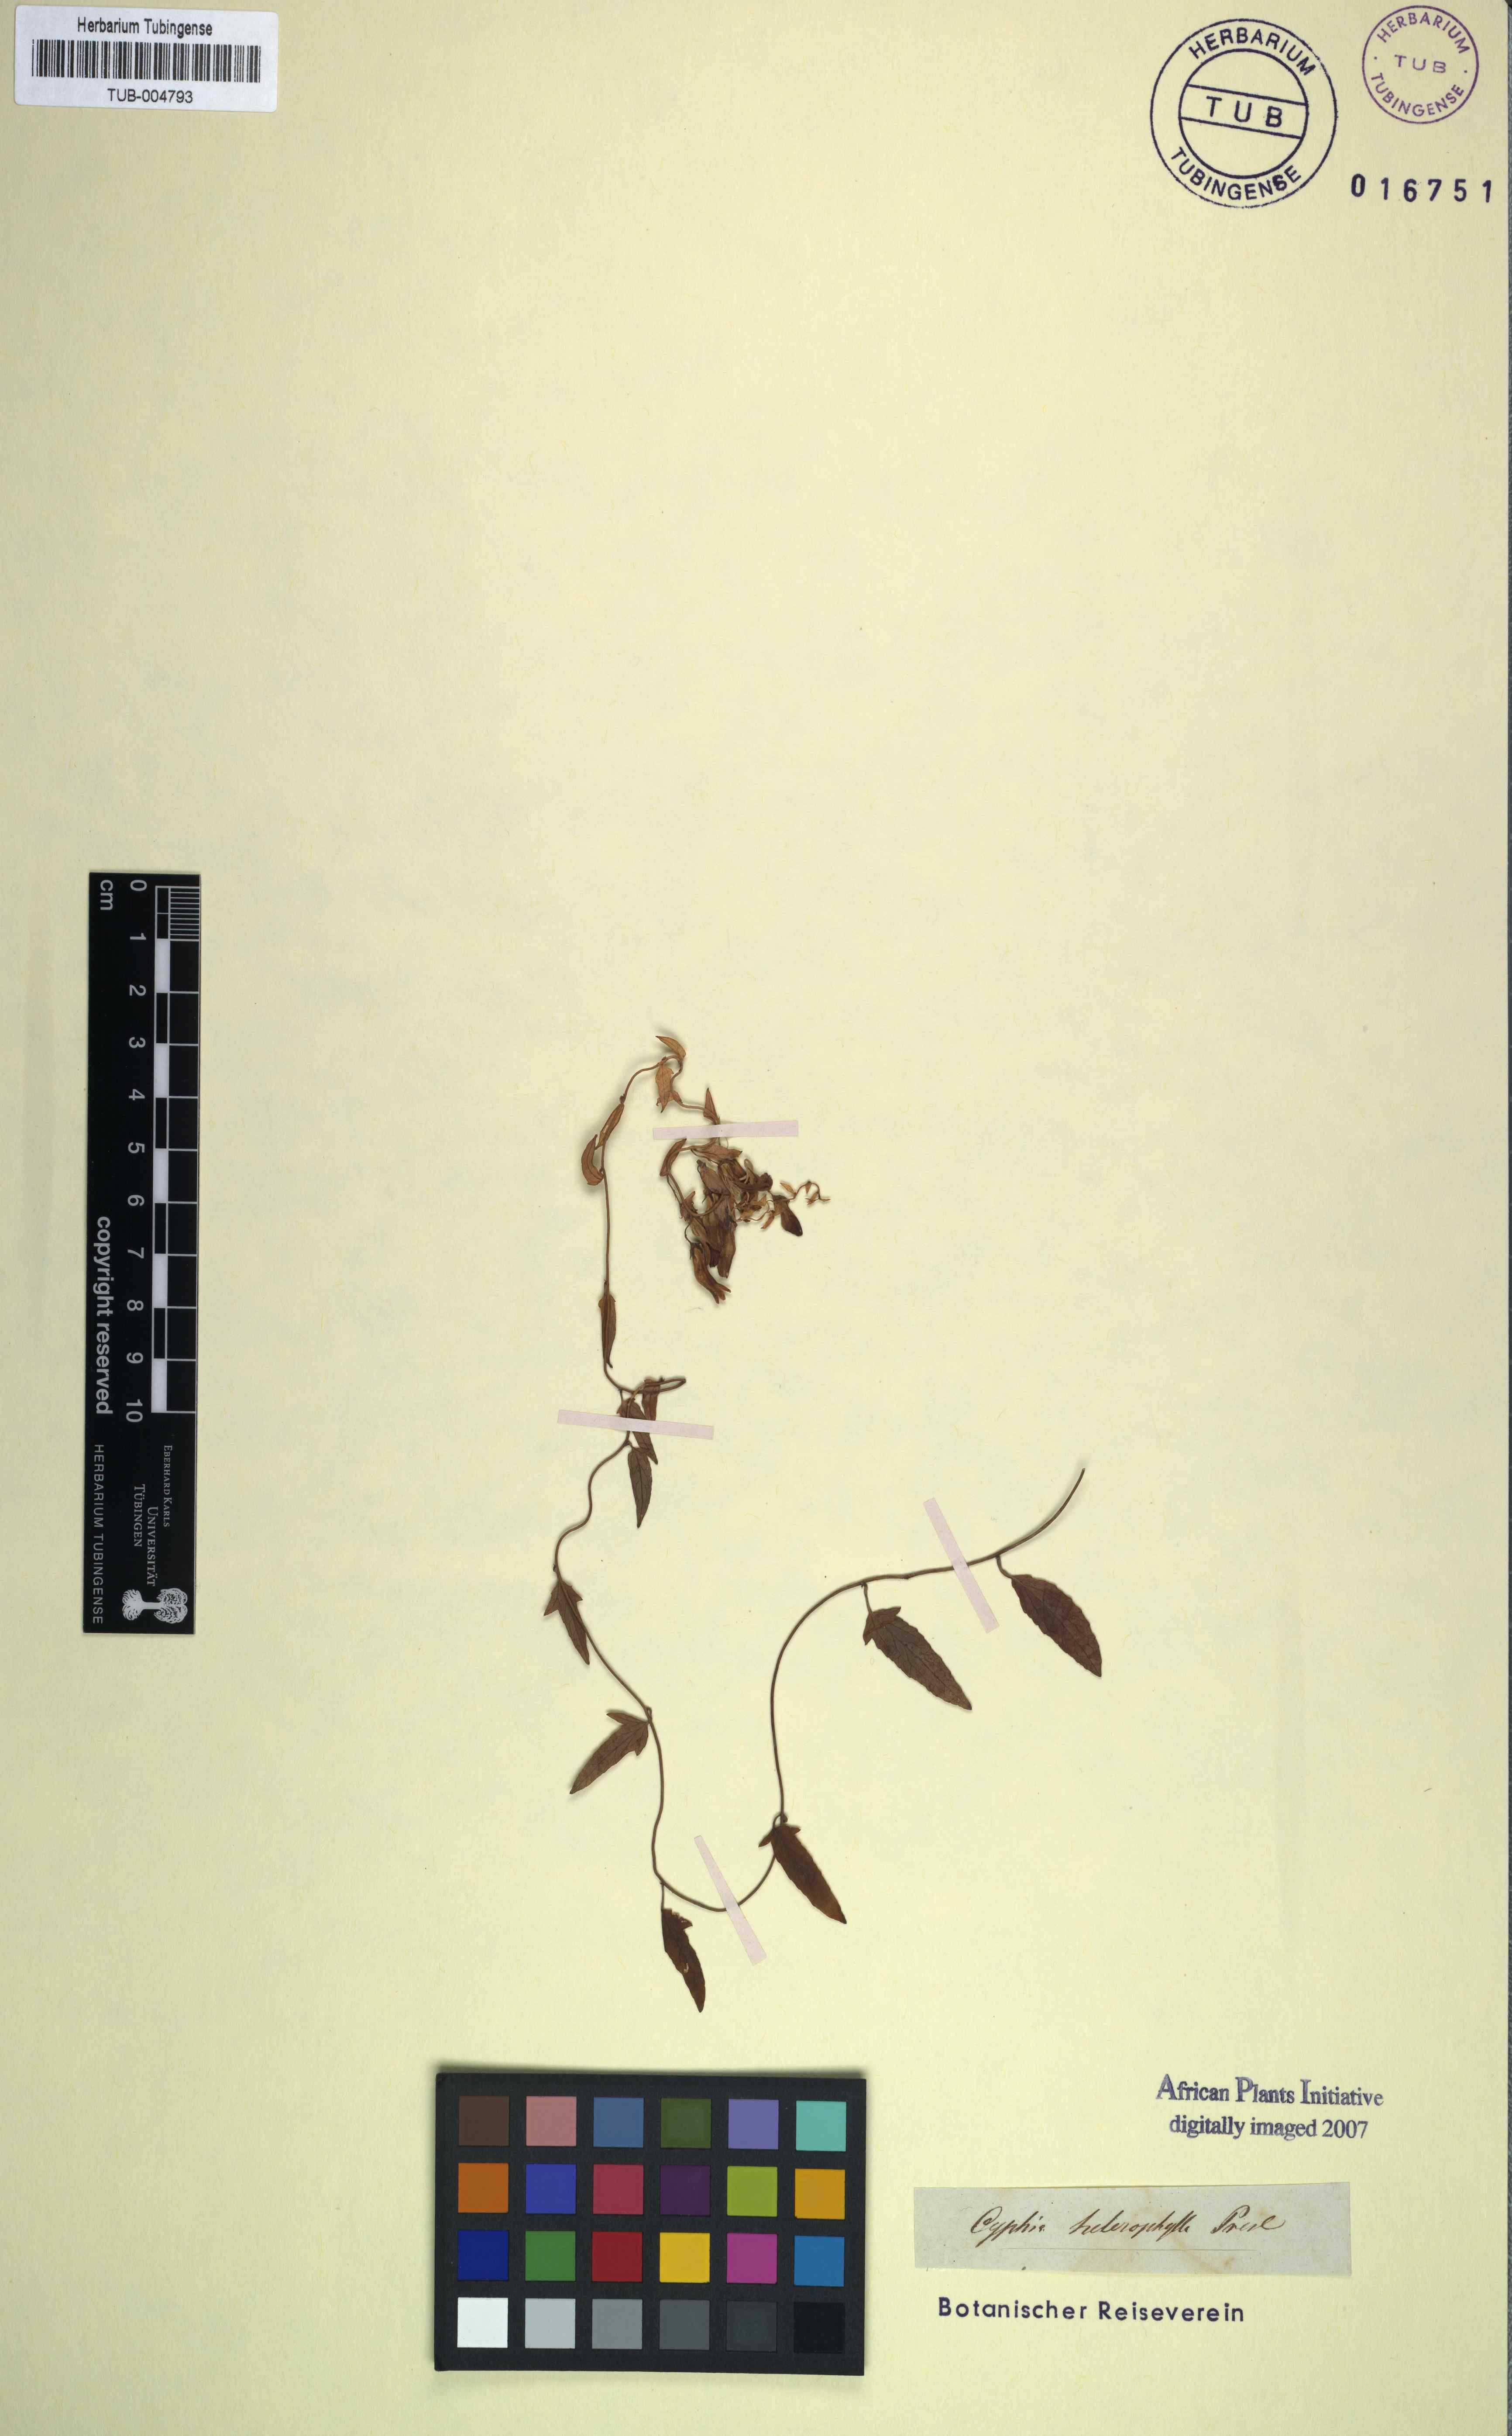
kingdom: Plantae
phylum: Tracheophyta
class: Magnoliopsida
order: Asterales
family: Campanulaceae
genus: Cyphia
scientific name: Cyphia heterophylla
